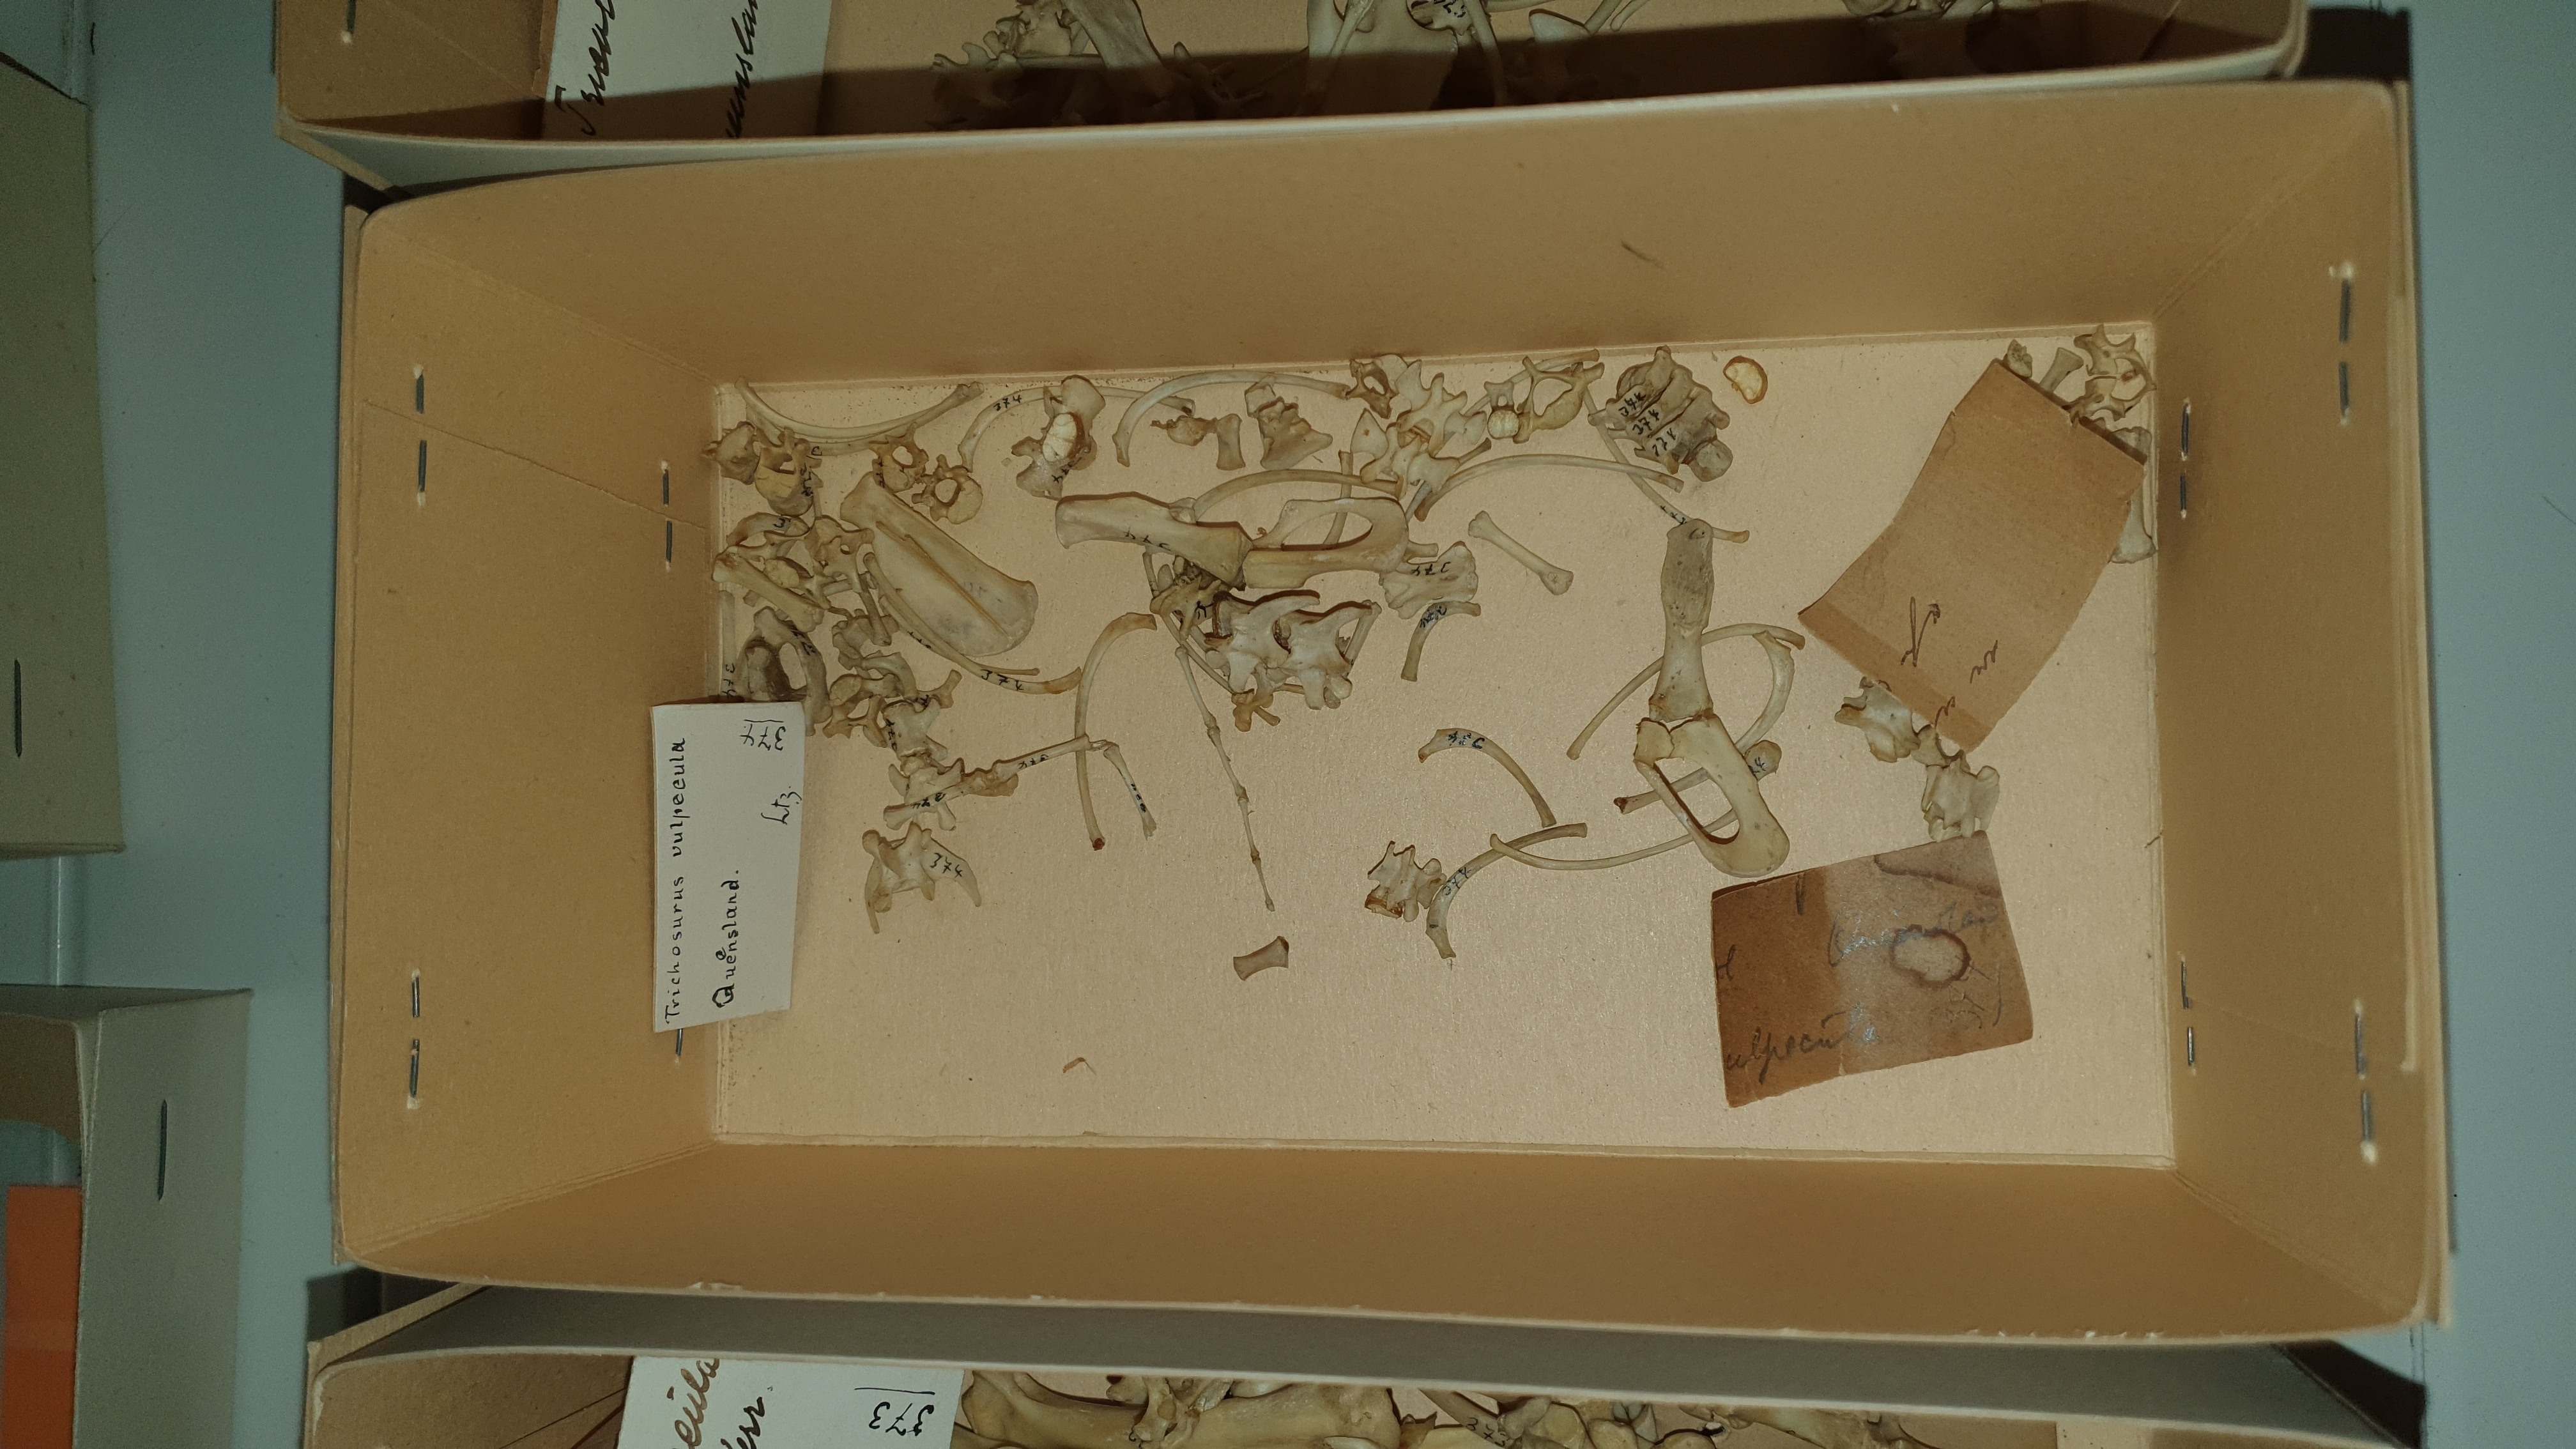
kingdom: Animalia
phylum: Chordata
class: Mammalia
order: Diprotodontia
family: Phalangeridae
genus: Trichosurus
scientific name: Trichosurus vulpecula
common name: Common brushtail
